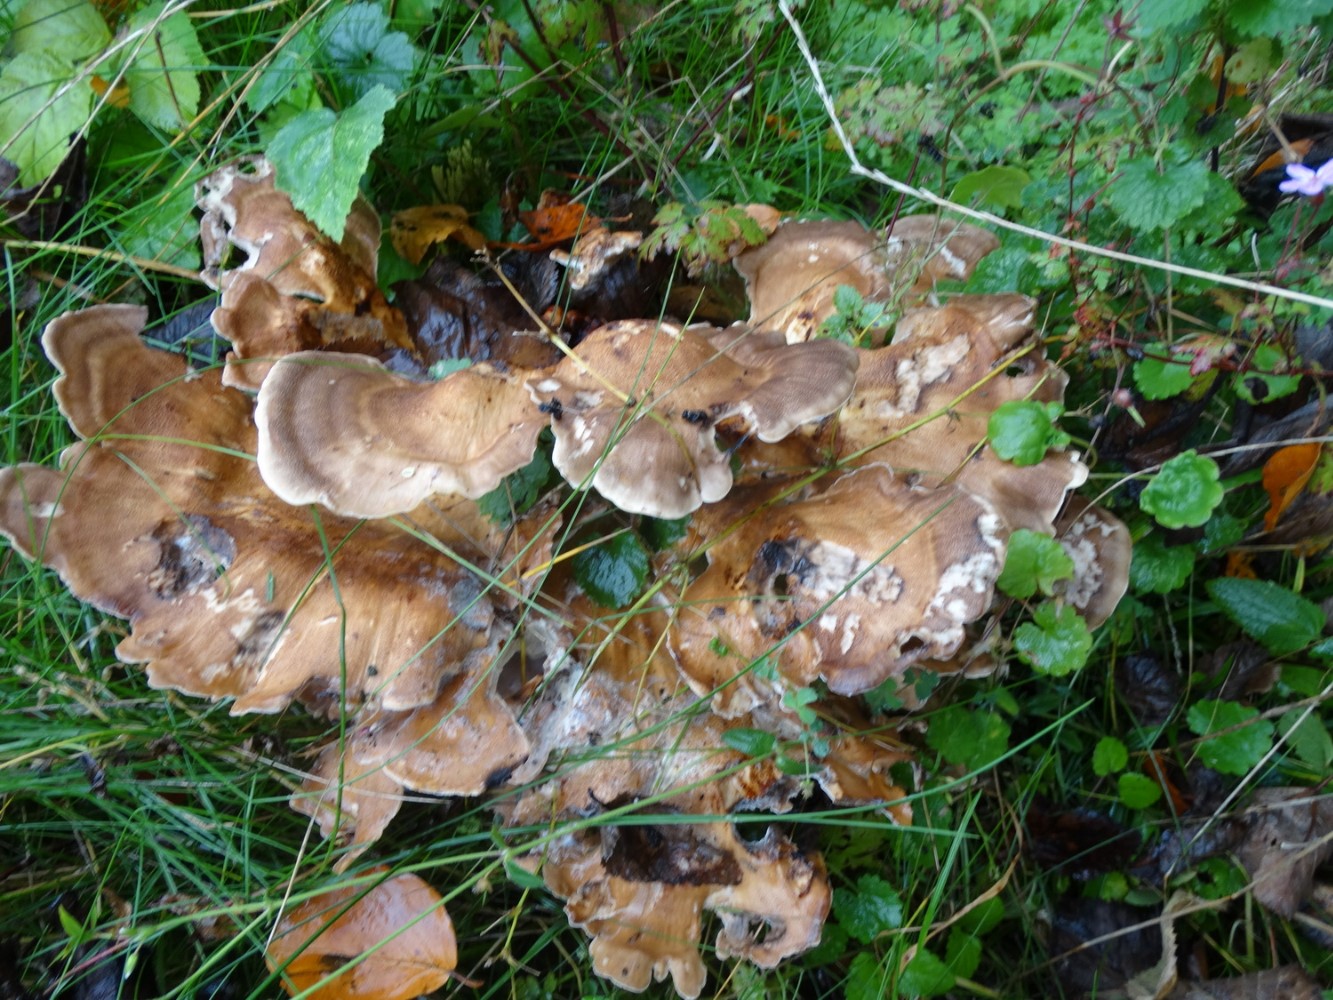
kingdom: Fungi
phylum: Basidiomycota
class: Agaricomycetes
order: Polyporales
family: Meripilaceae
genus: Meripilus
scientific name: Meripilus giganteus
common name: kæmpeporesvamp
